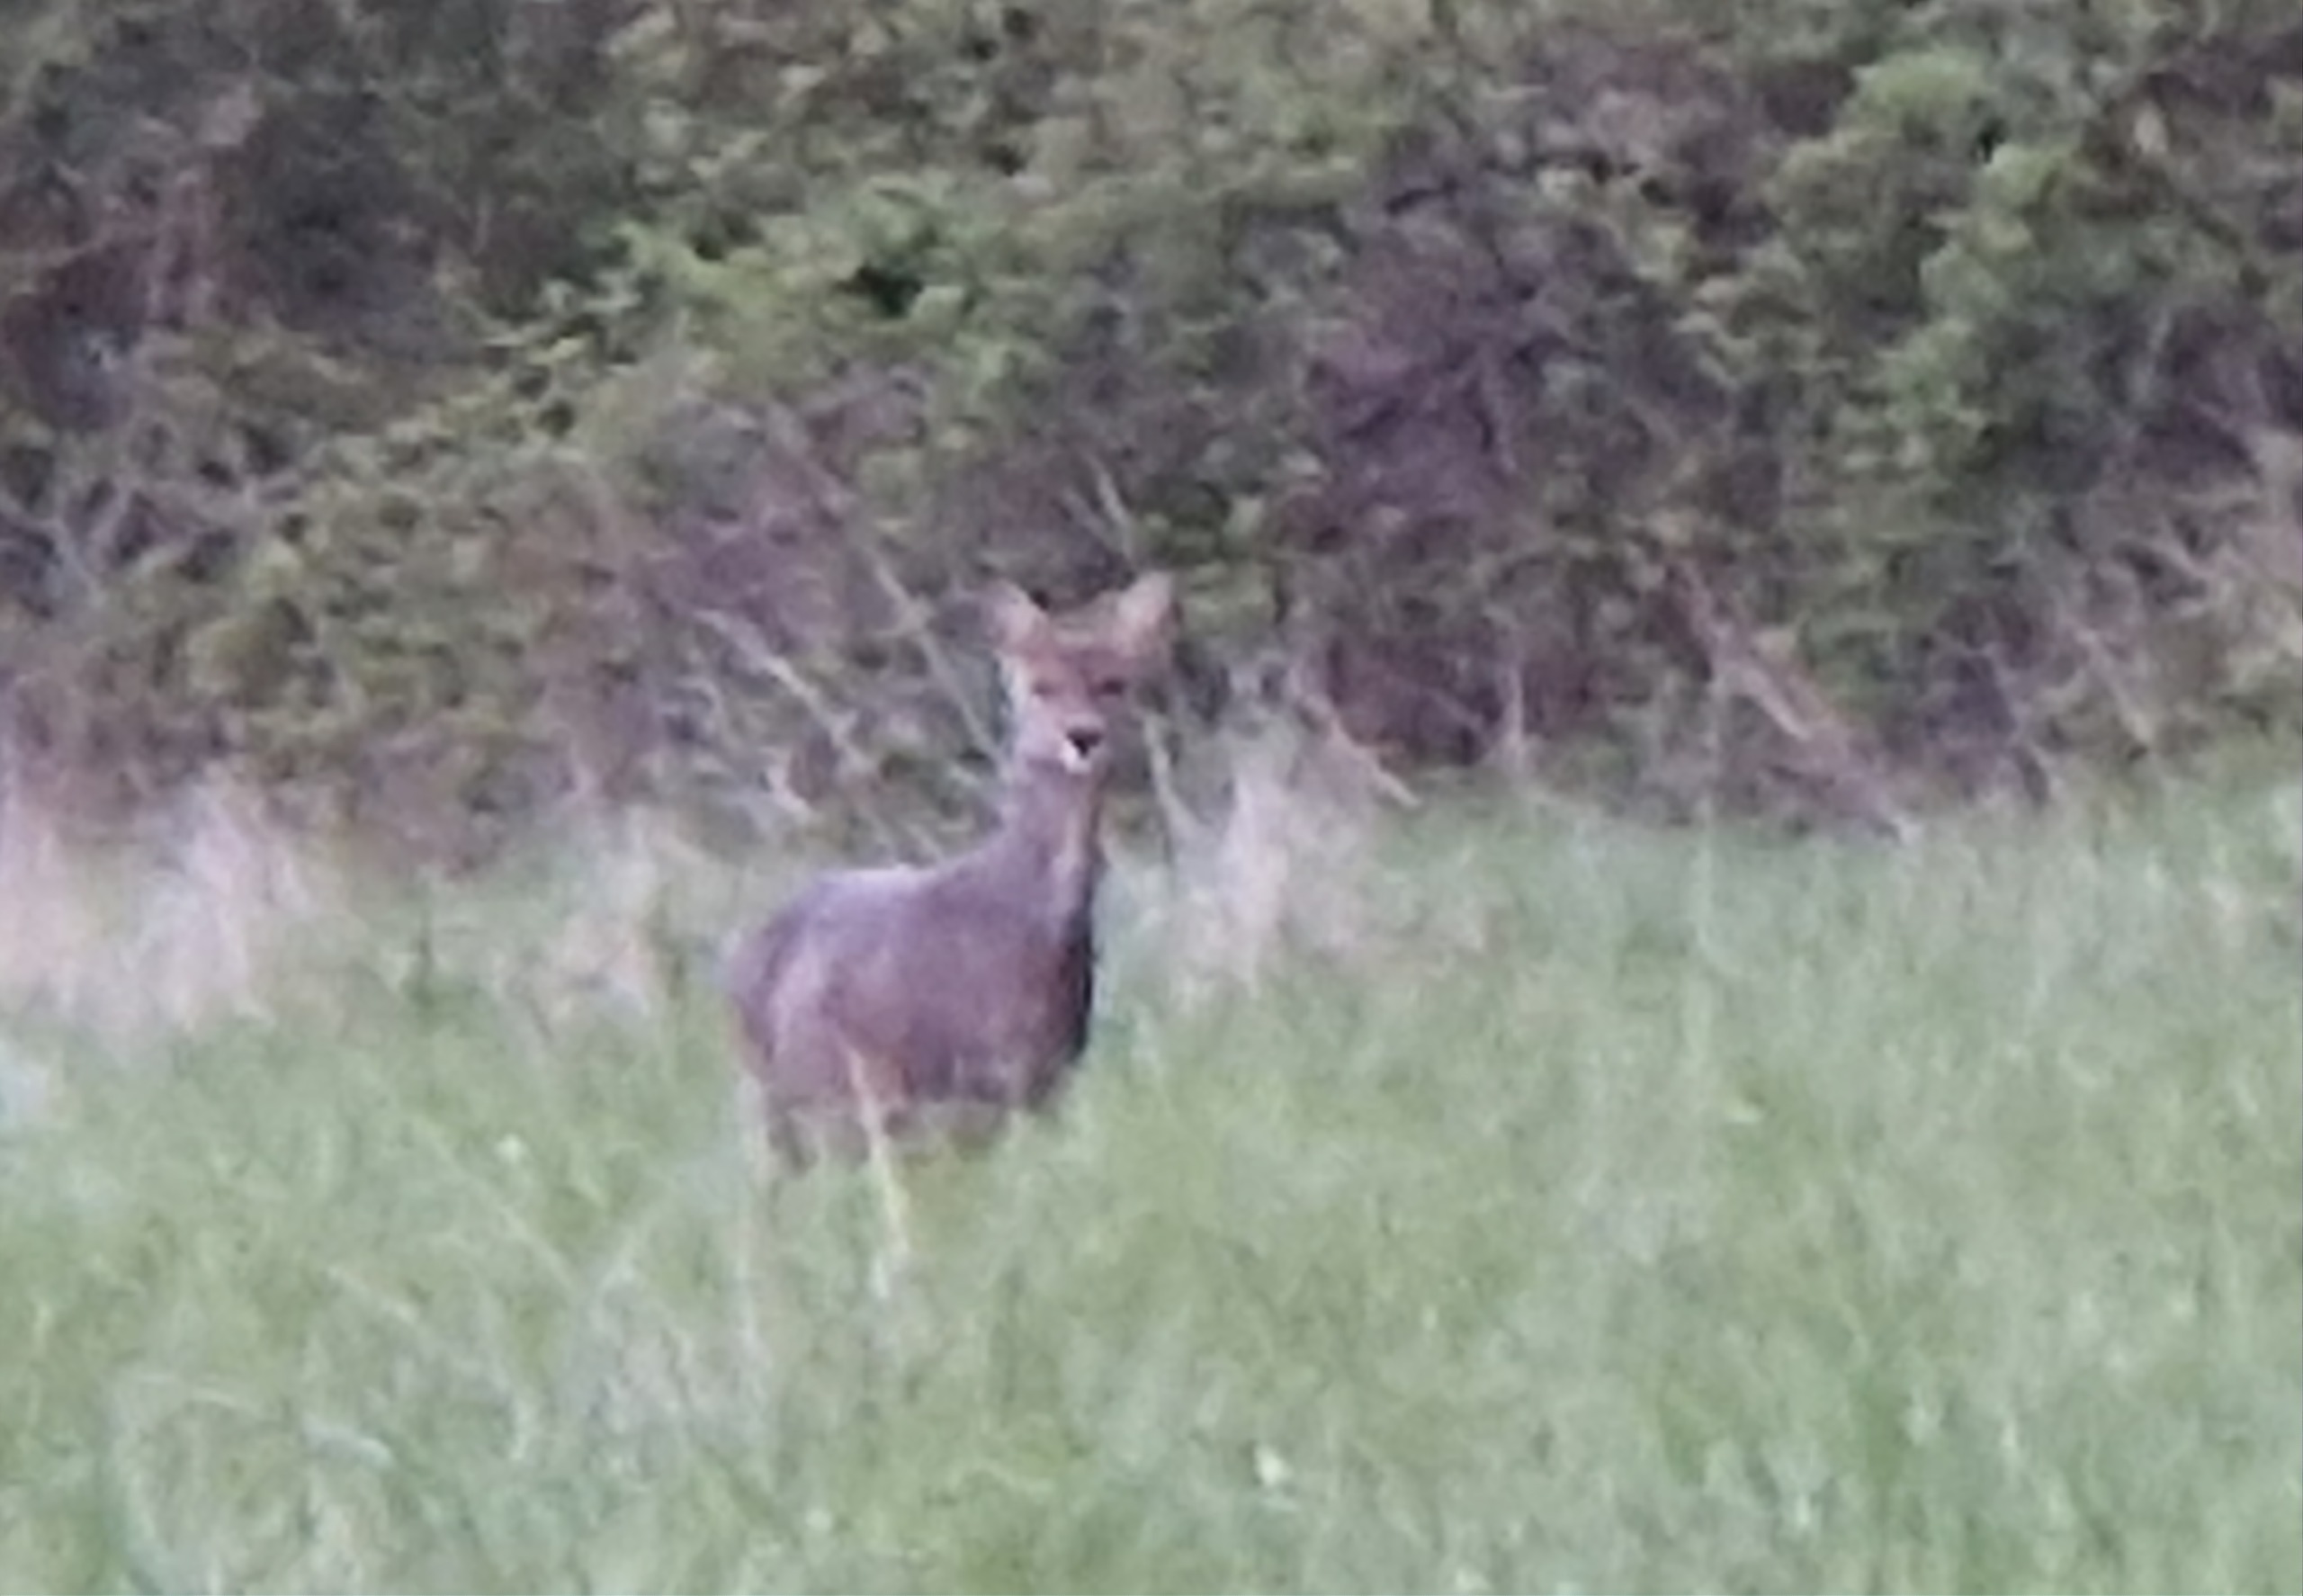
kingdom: Animalia
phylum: Chordata
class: Mammalia
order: Artiodactyla
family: Cervidae
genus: Capreolus
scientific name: Capreolus capreolus
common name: Rådyr
